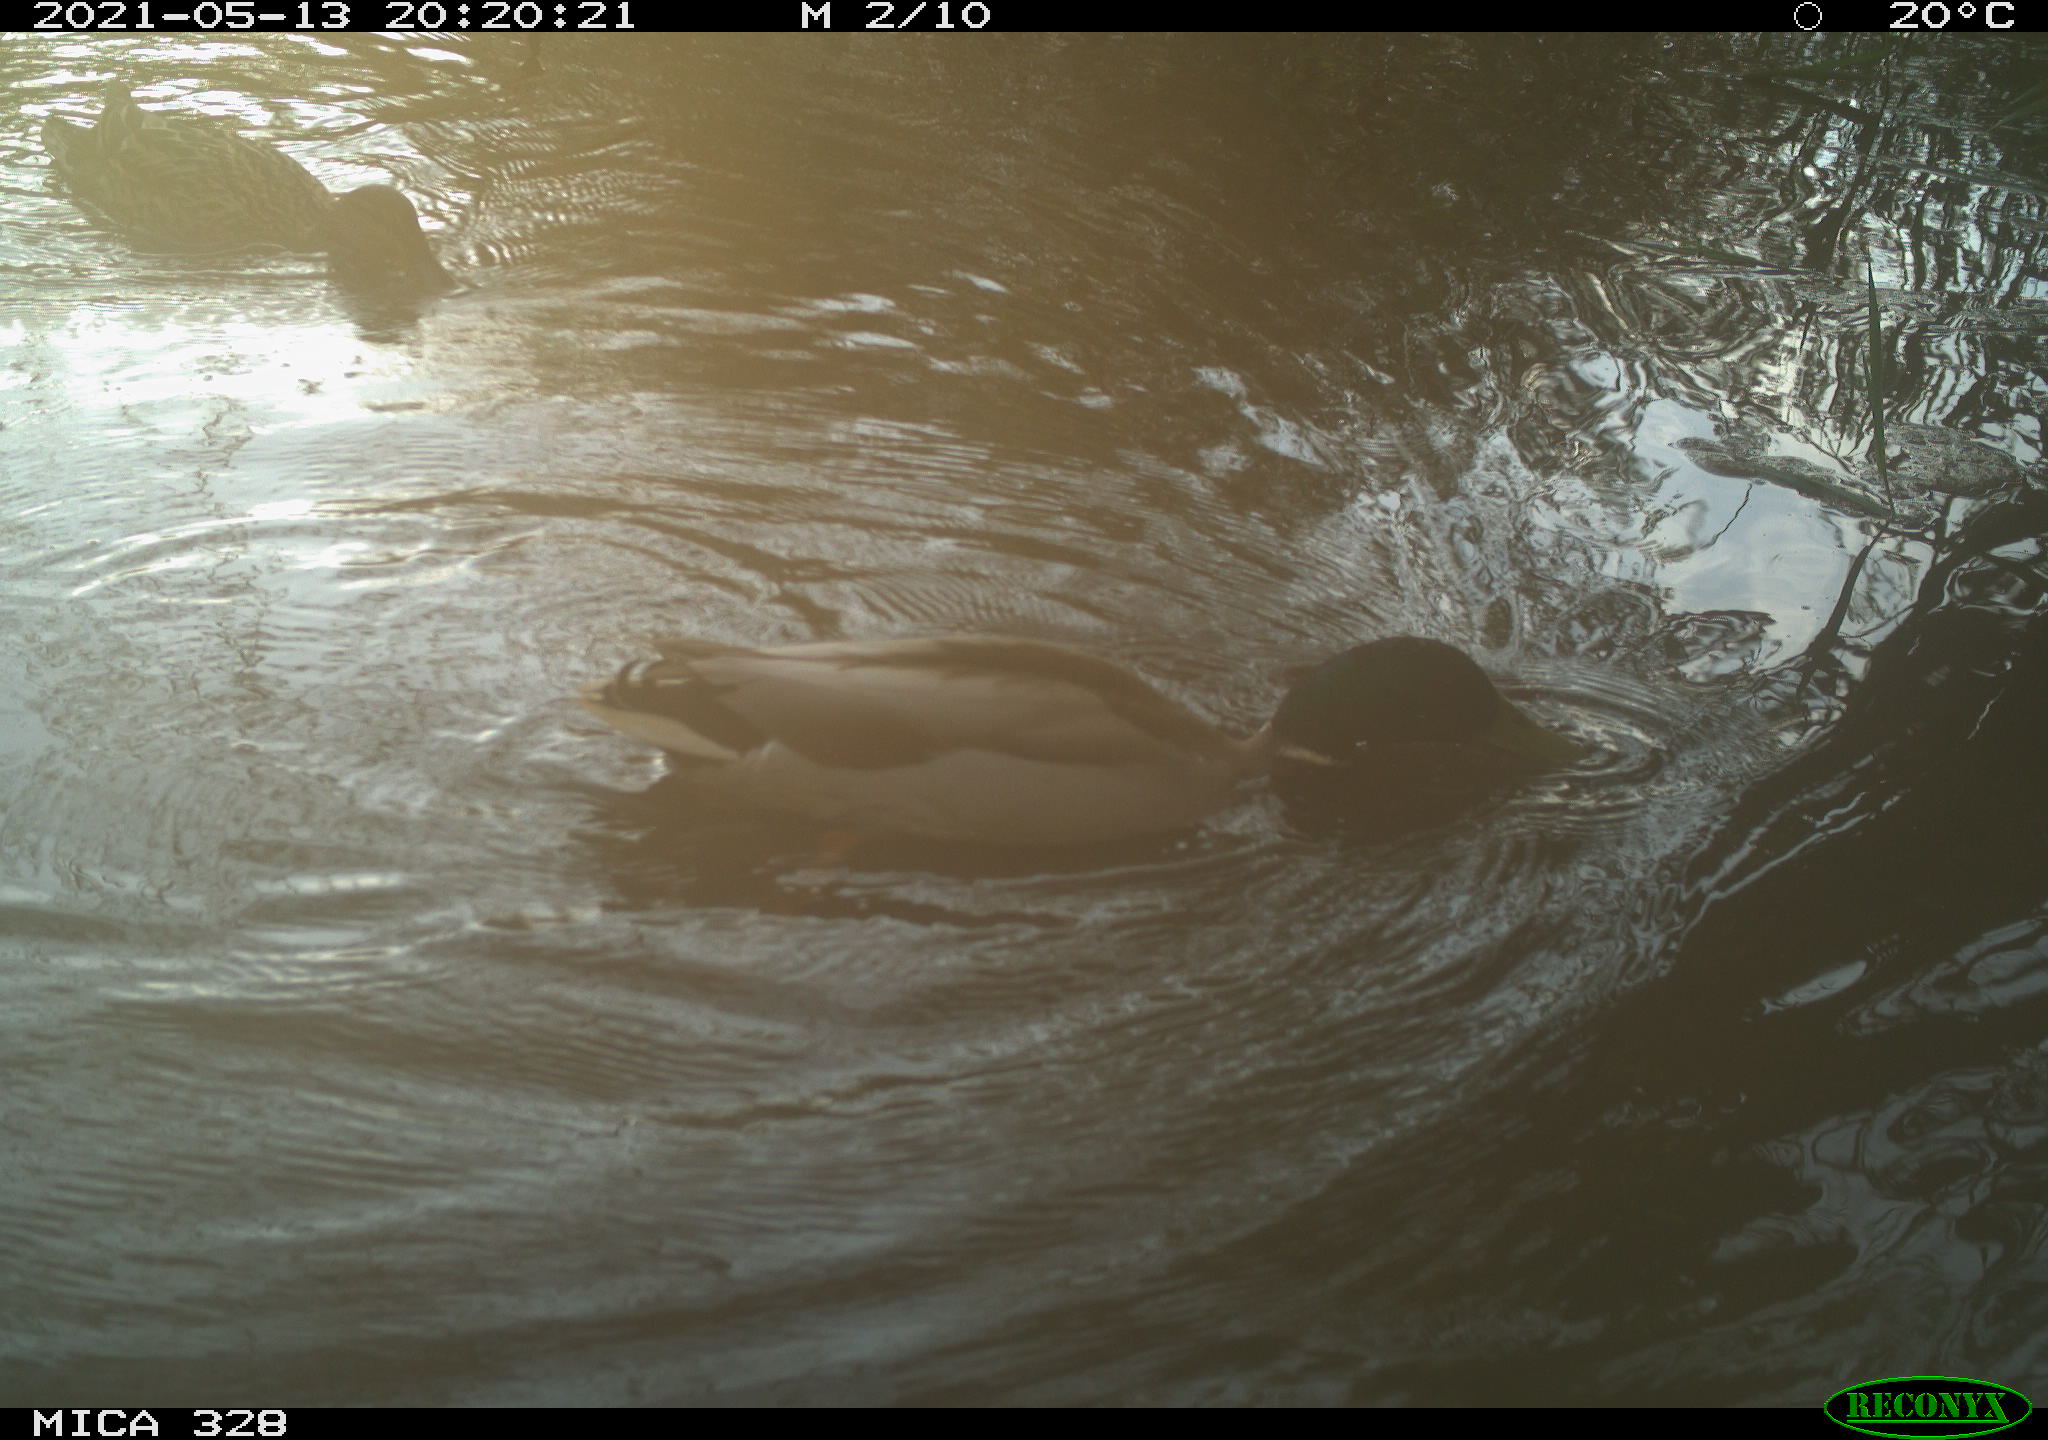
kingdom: Animalia
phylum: Chordata
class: Aves
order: Anseriformes
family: Anatidae
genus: Anas
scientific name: Anas platyrhynchos
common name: Mallard
